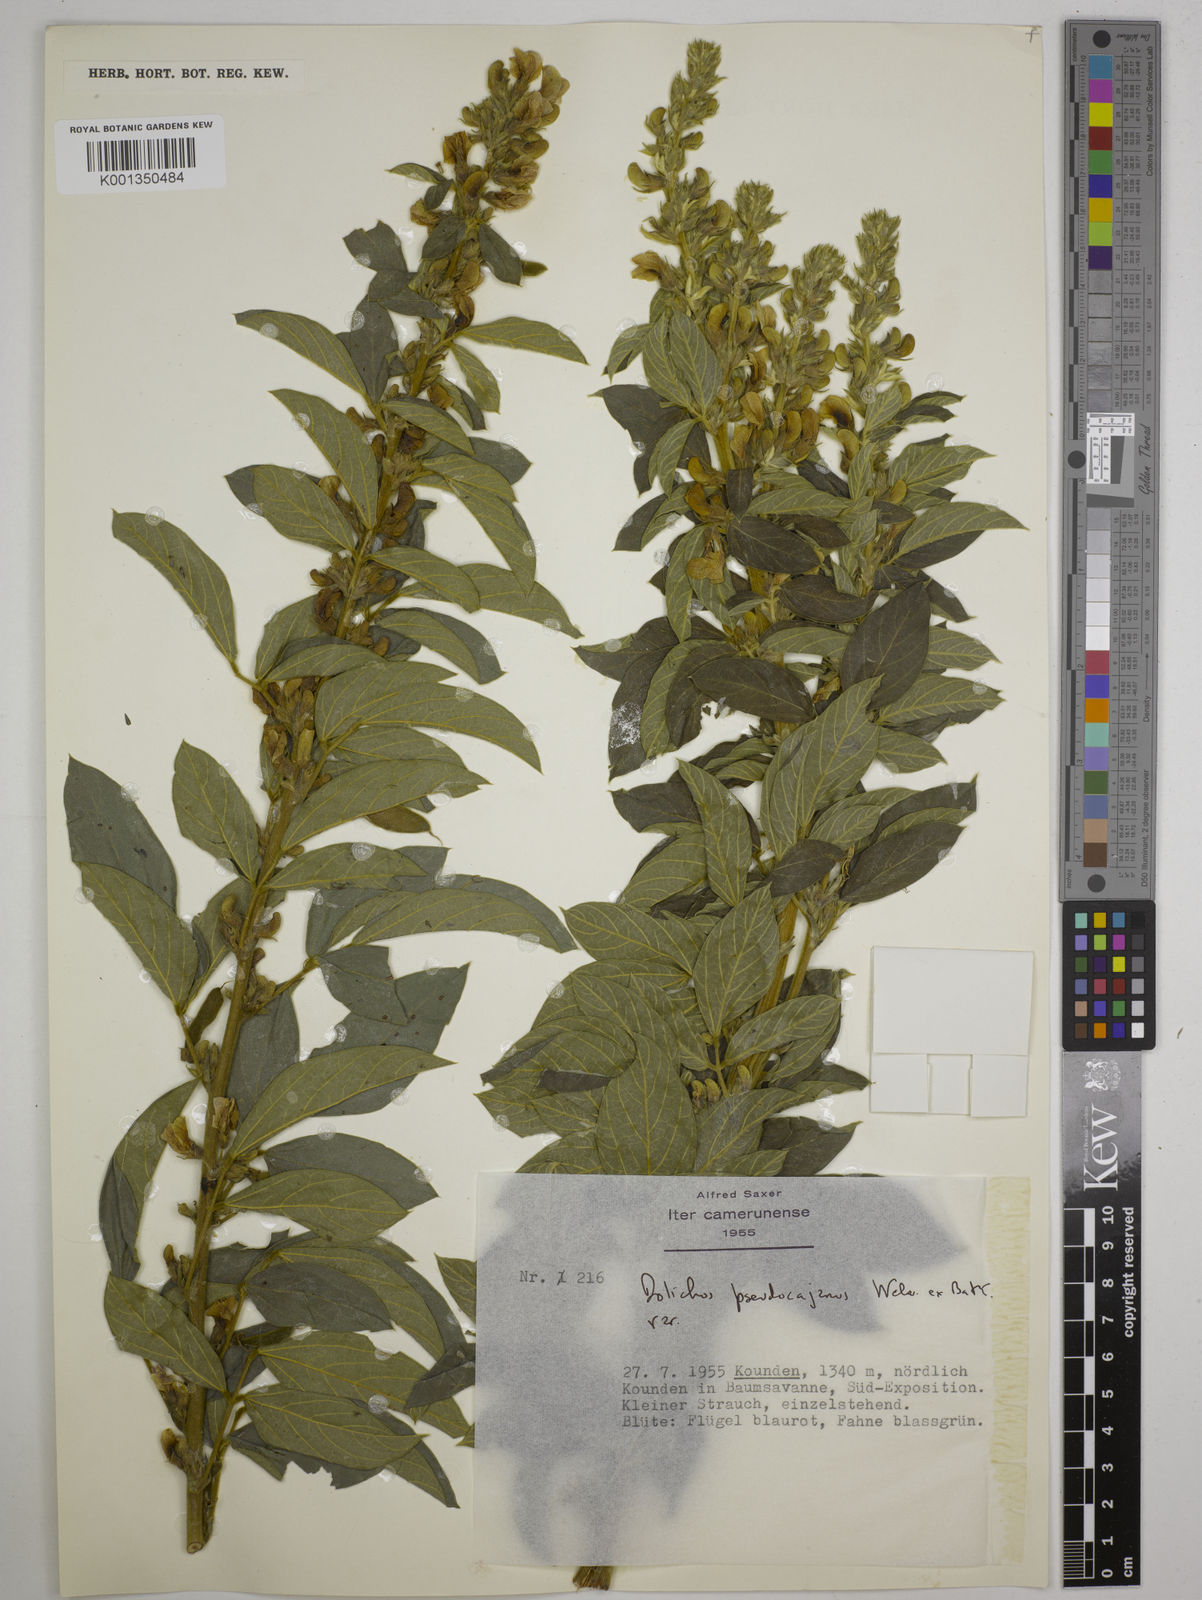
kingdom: Plantae
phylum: Tracheophyta
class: Magnoliopsida
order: Fabales
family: Fabaceae
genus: Dolichos
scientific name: Dolichos pseudocajanus
